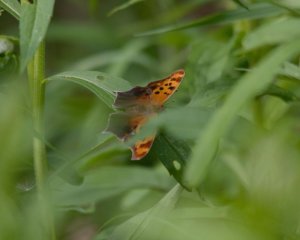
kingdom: Animalia
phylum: Arthropoda
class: Insecta
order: Lepidoptera
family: Nymphalidae
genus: Polygonia
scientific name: Polygonia interrogationis
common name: Question Mark
